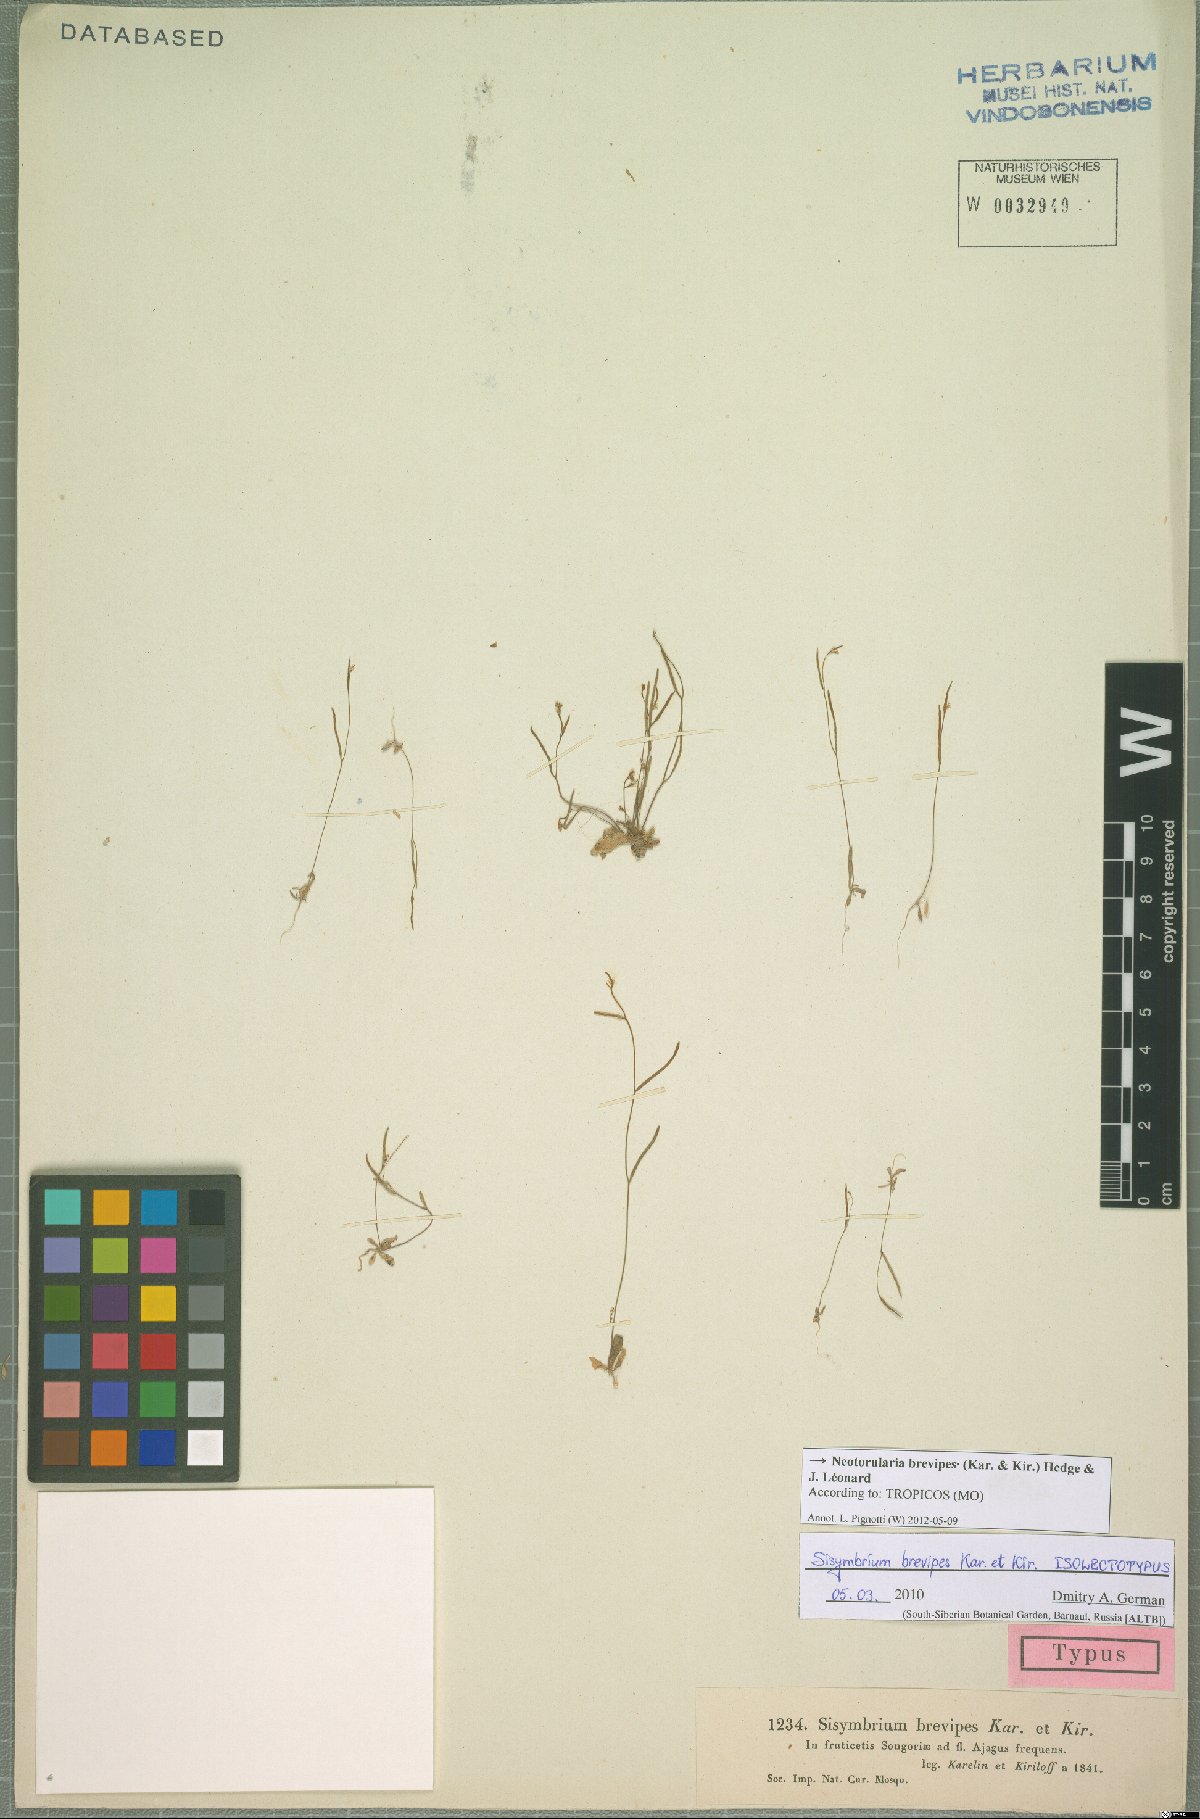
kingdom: Plantae
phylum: Tracheophyta
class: Magnoliopsida
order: Brassicales
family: Brassicaceae
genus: Neotorularia
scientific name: Neotorularia brevipes
